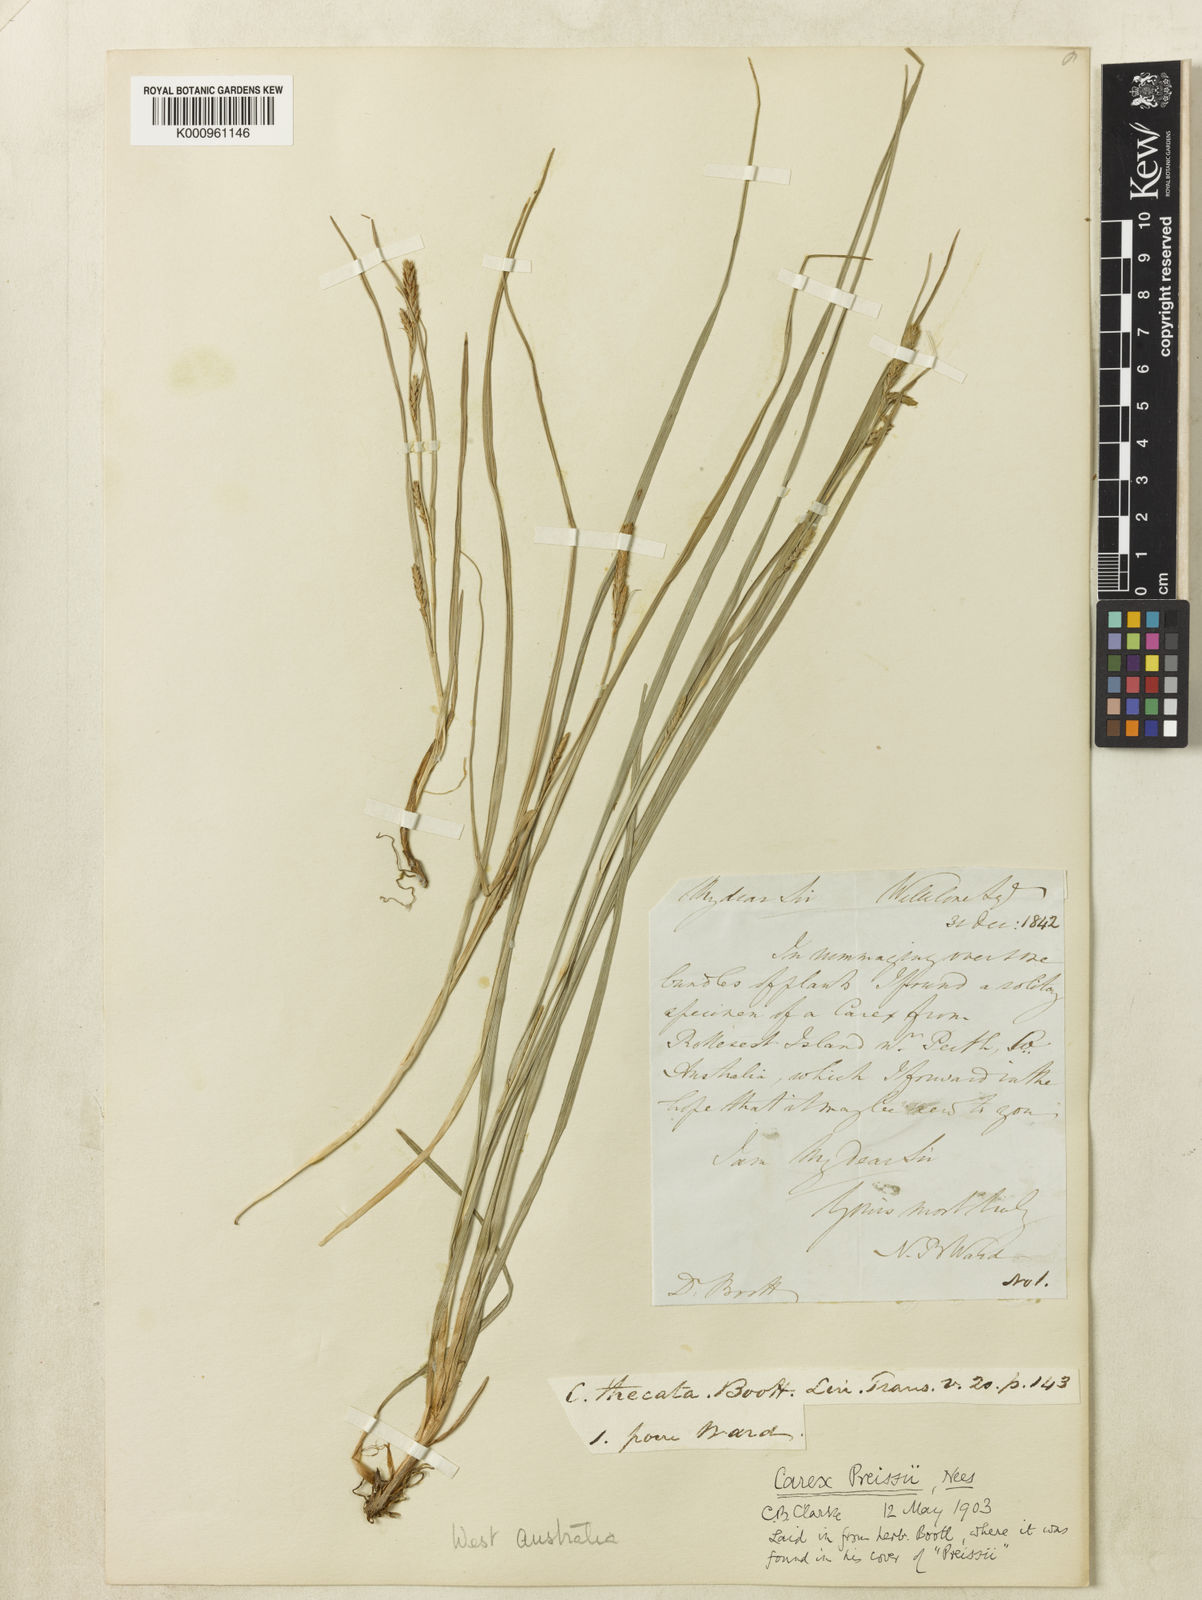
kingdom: Plantae
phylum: Tracheophyta
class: Liliopsida
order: Poales
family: Cyperaceae
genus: Carex
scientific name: Carex preissii
